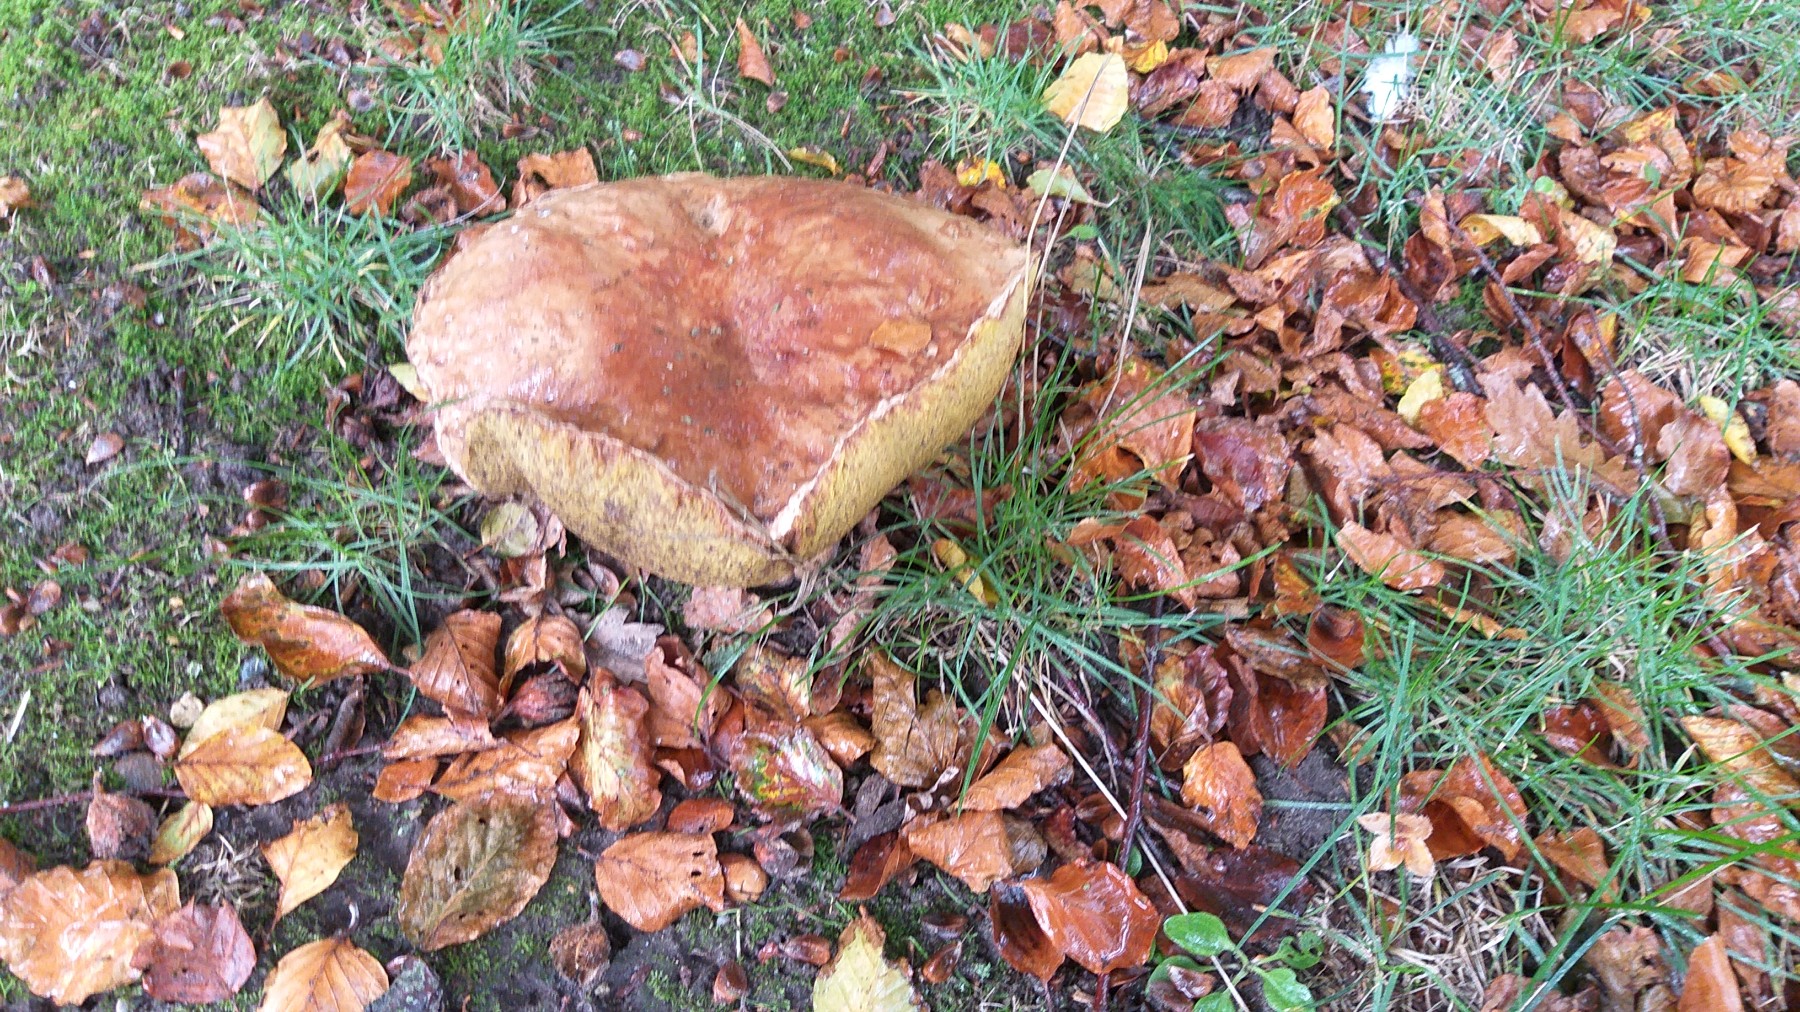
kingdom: Fungi
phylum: Basidiomycota
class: Agaricomycetes
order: Boletales
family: Boletaceae
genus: Boletus
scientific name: Boletus edulis
